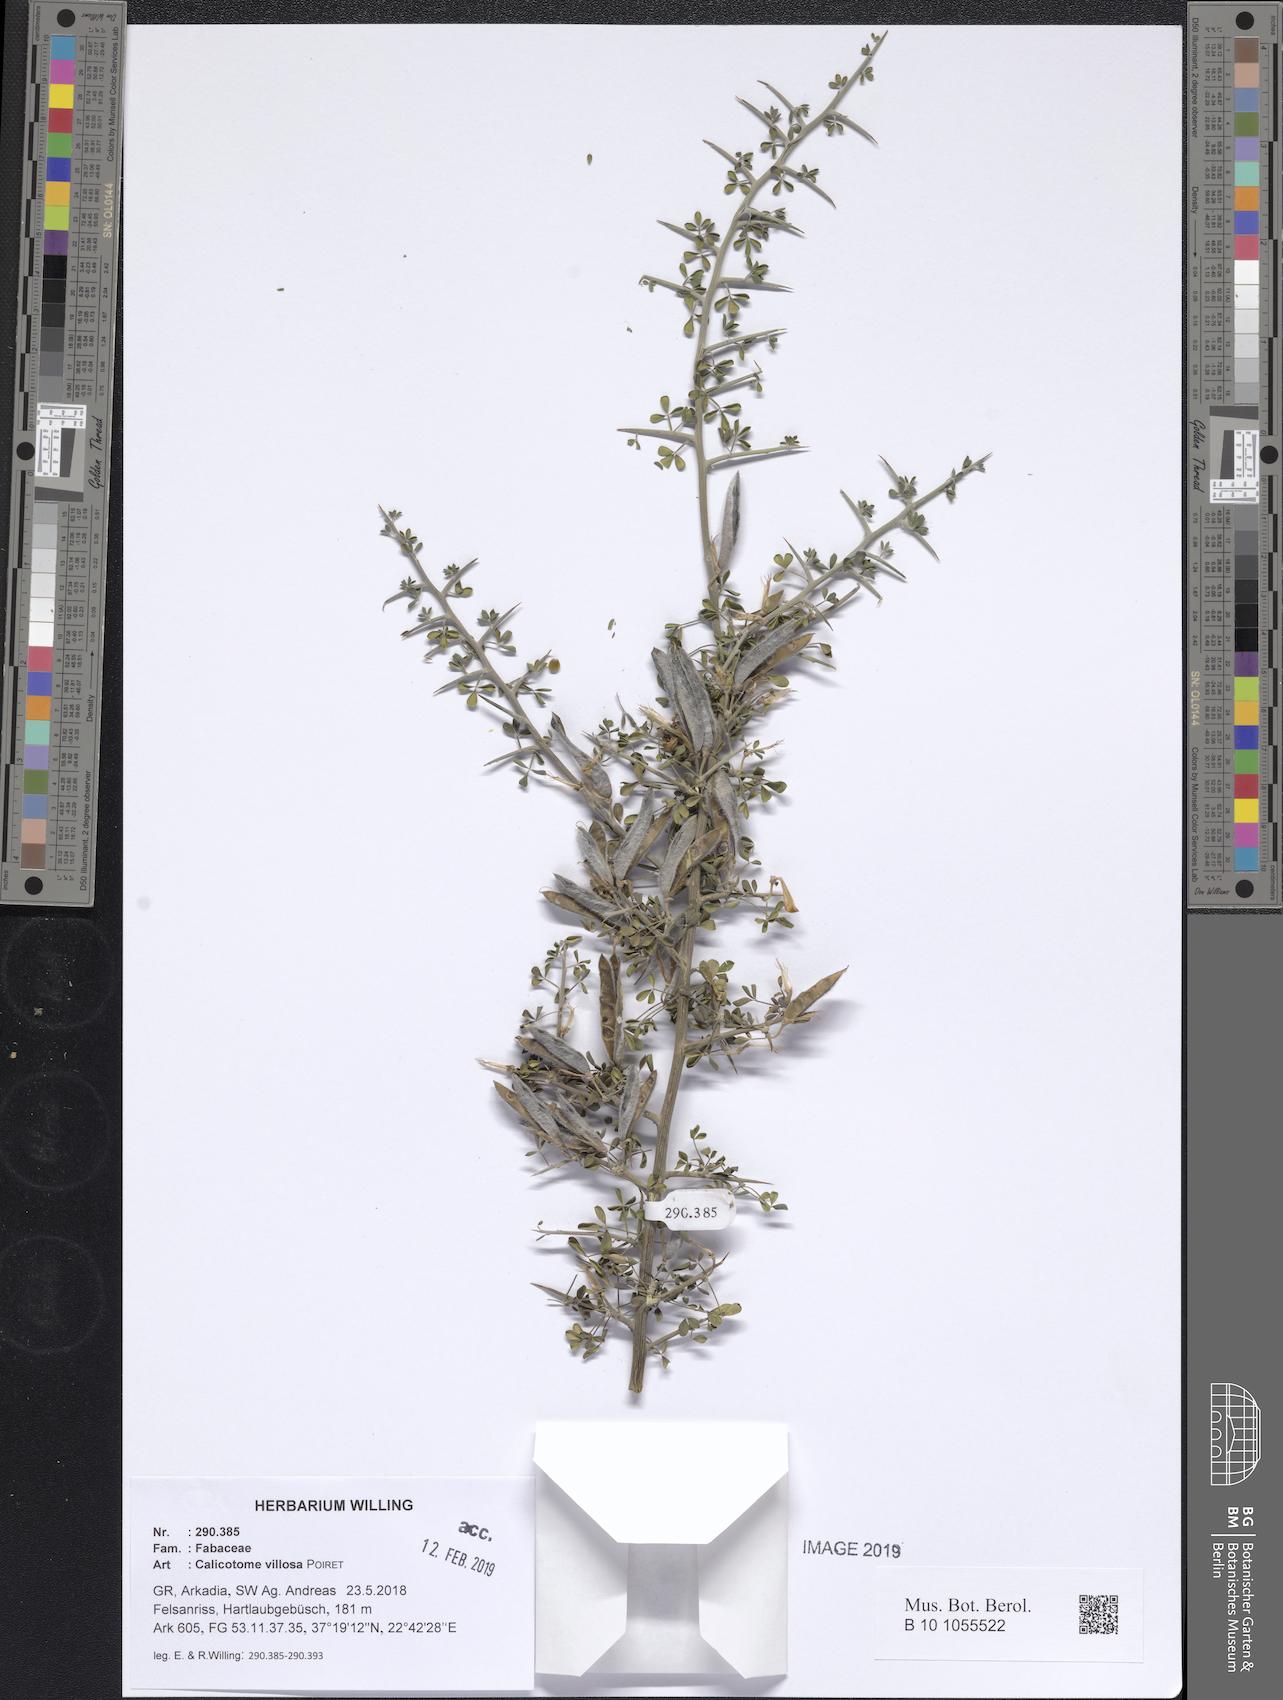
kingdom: Plantae
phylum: Tracheophyta
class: Magnoliopsida
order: Fabales
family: Fabaceae
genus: Calicotome
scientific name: Calicotome villosa
